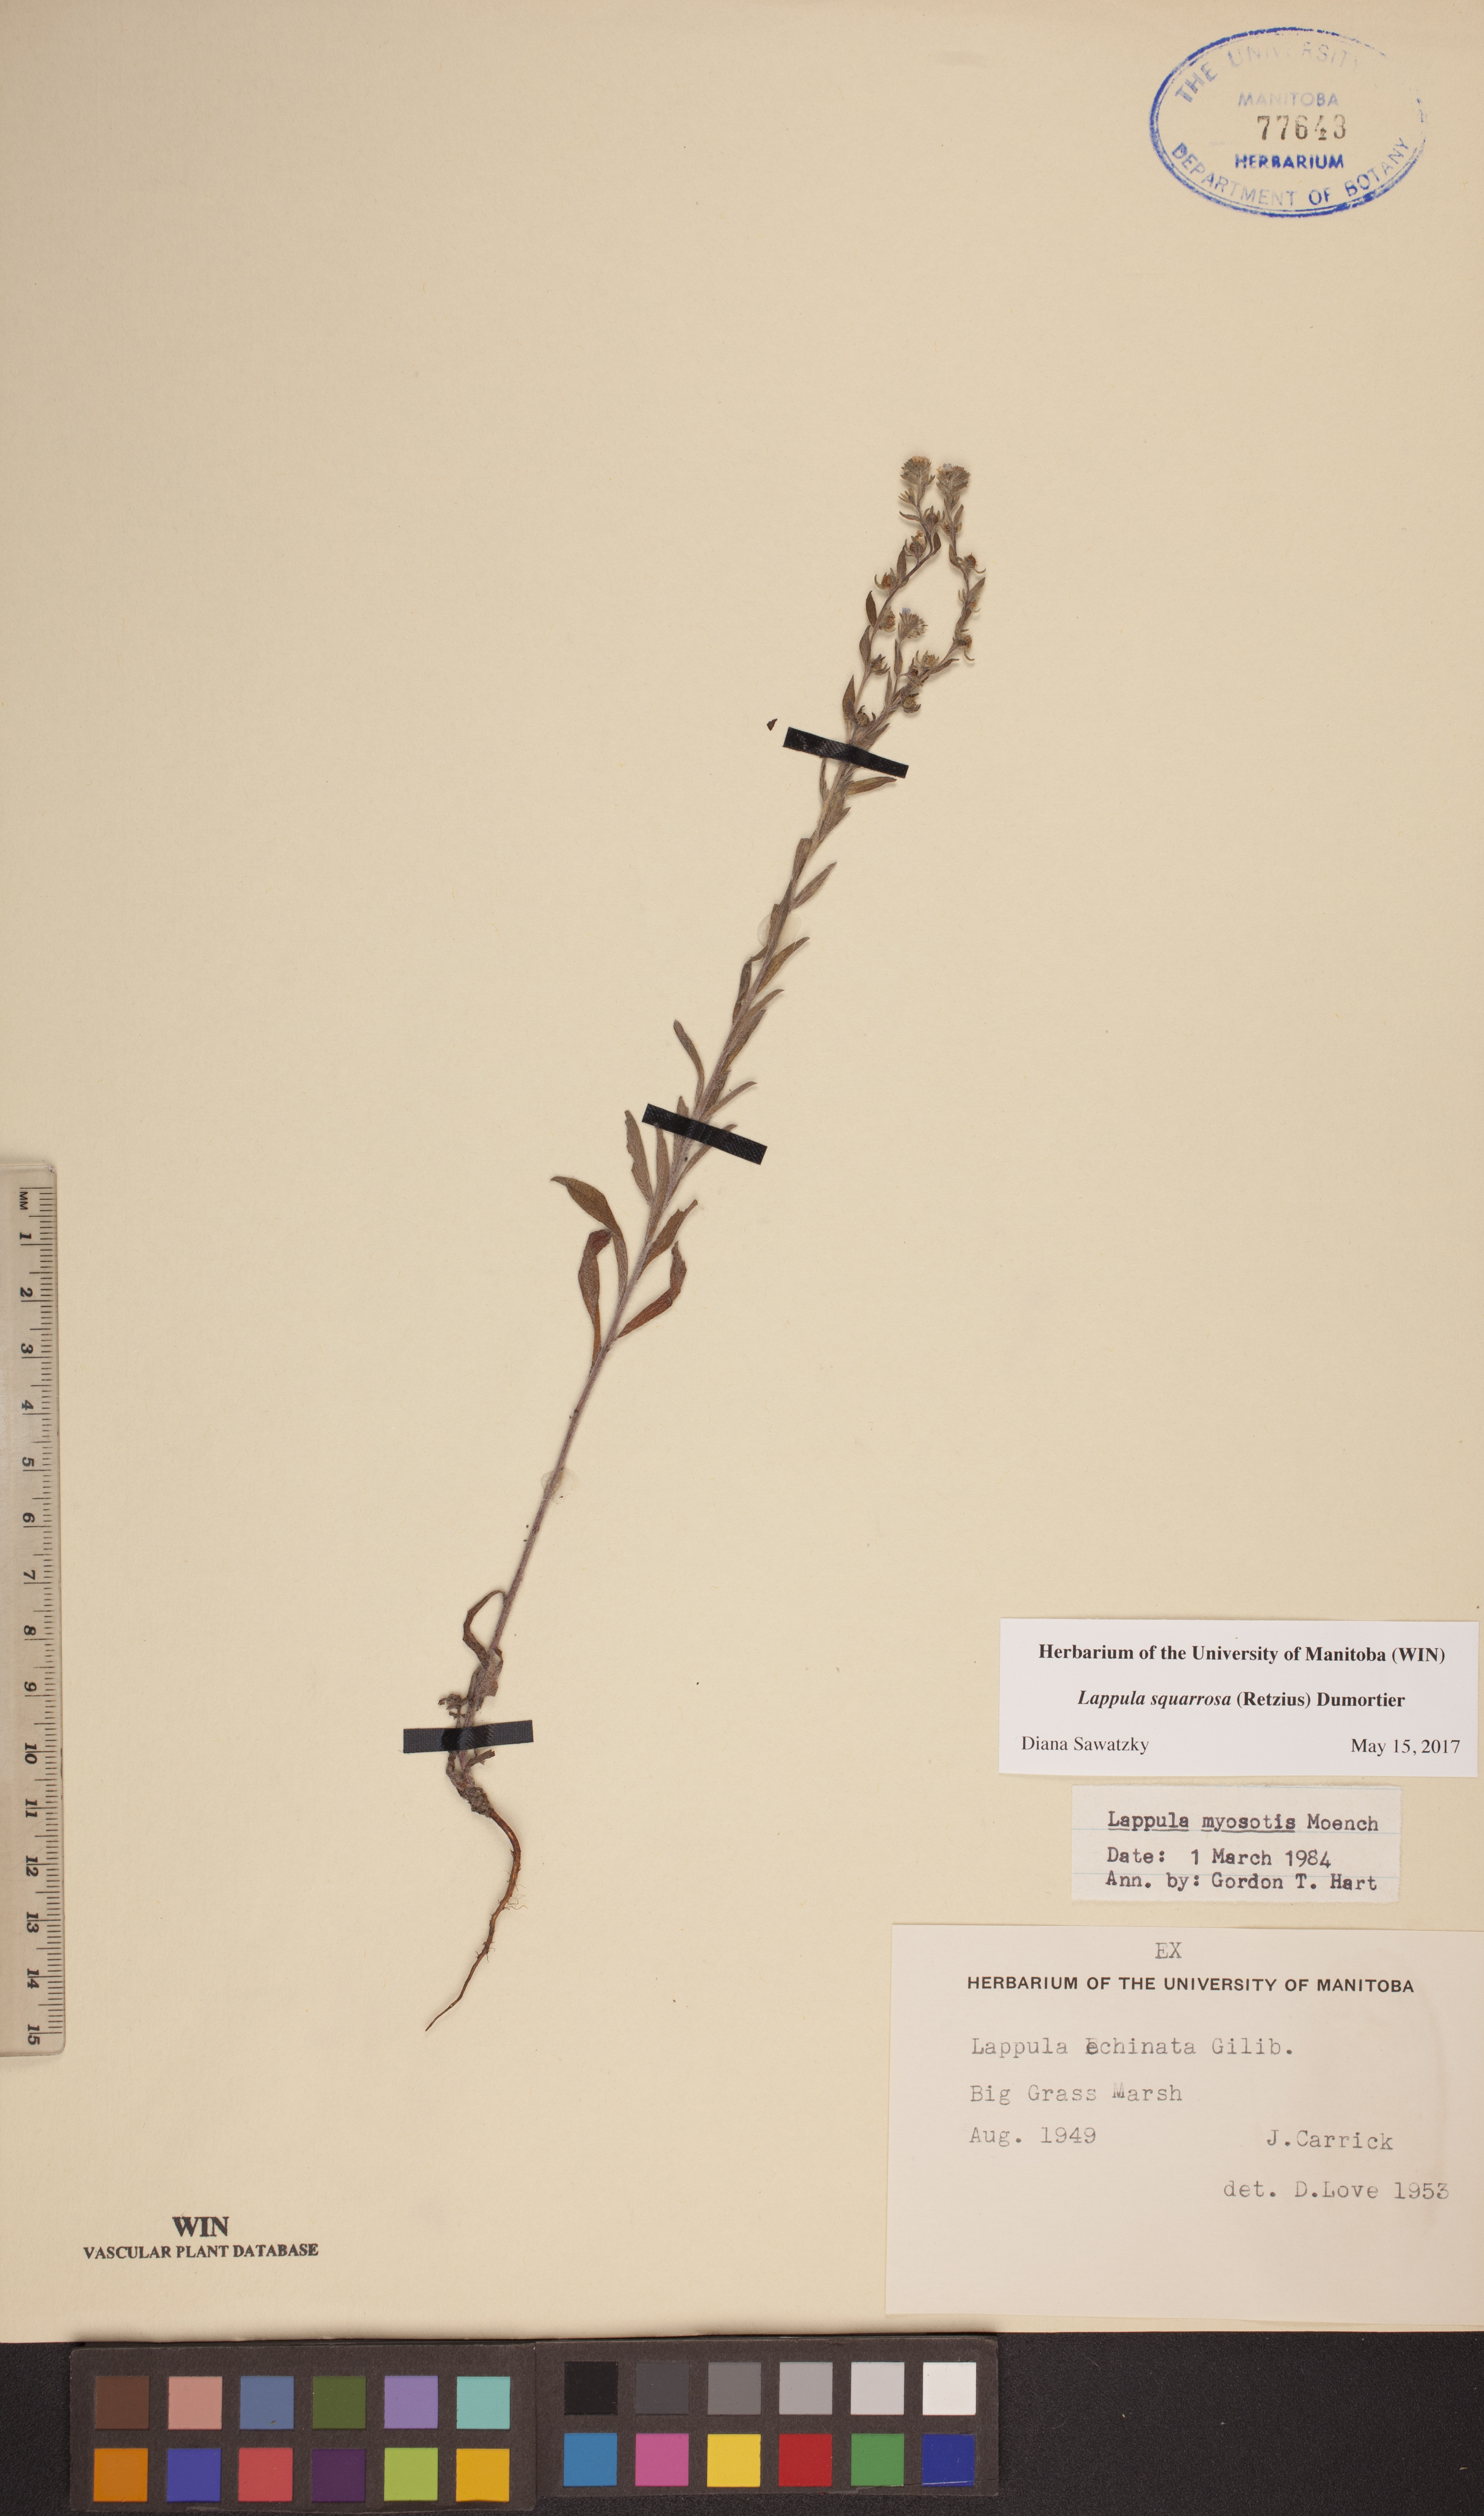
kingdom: Plantae
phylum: Tracheophyta
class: Magnoliopsida
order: Boraginales
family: Boraginaceae
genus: Lappula
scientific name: Lappula squarrosa
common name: European stickseed
